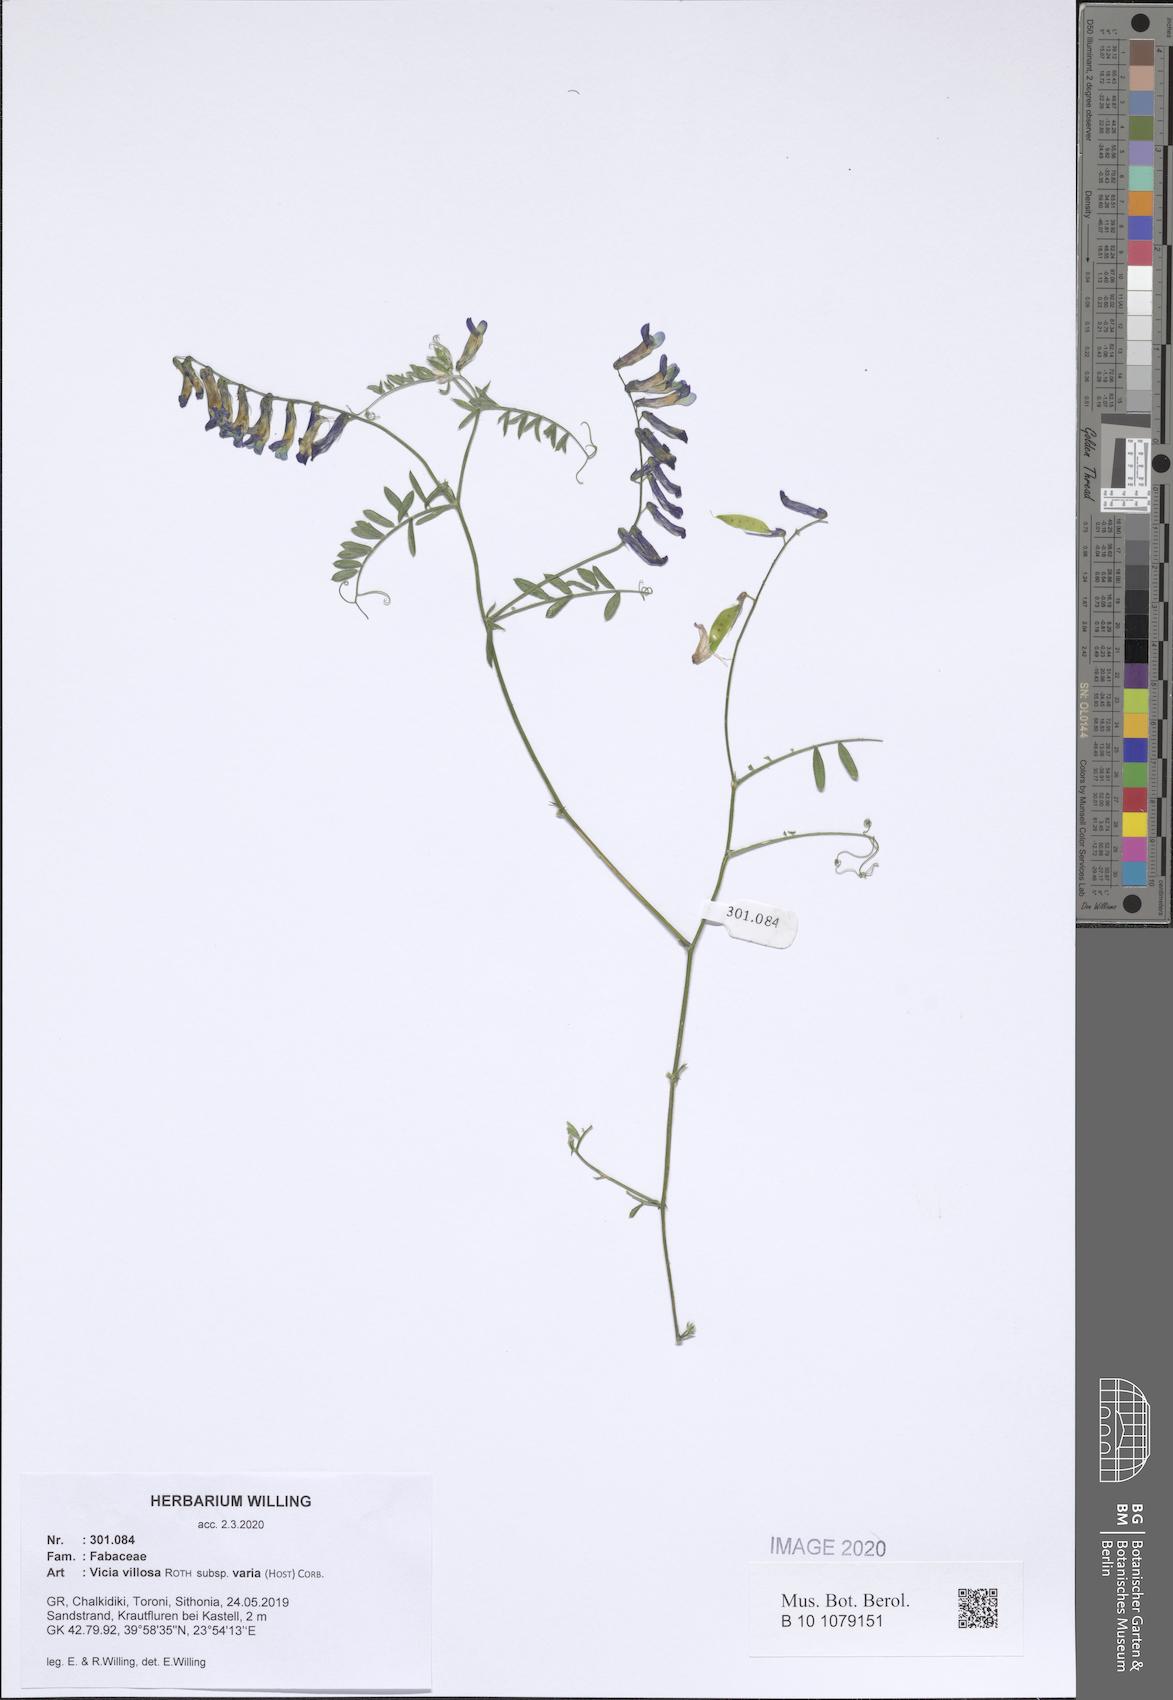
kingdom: Plantae
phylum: Tracheophyta
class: Magnoliopsida
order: Fabales
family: Fabaceae
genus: Vicia
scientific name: Vicia villosa
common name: Fodder vetch
